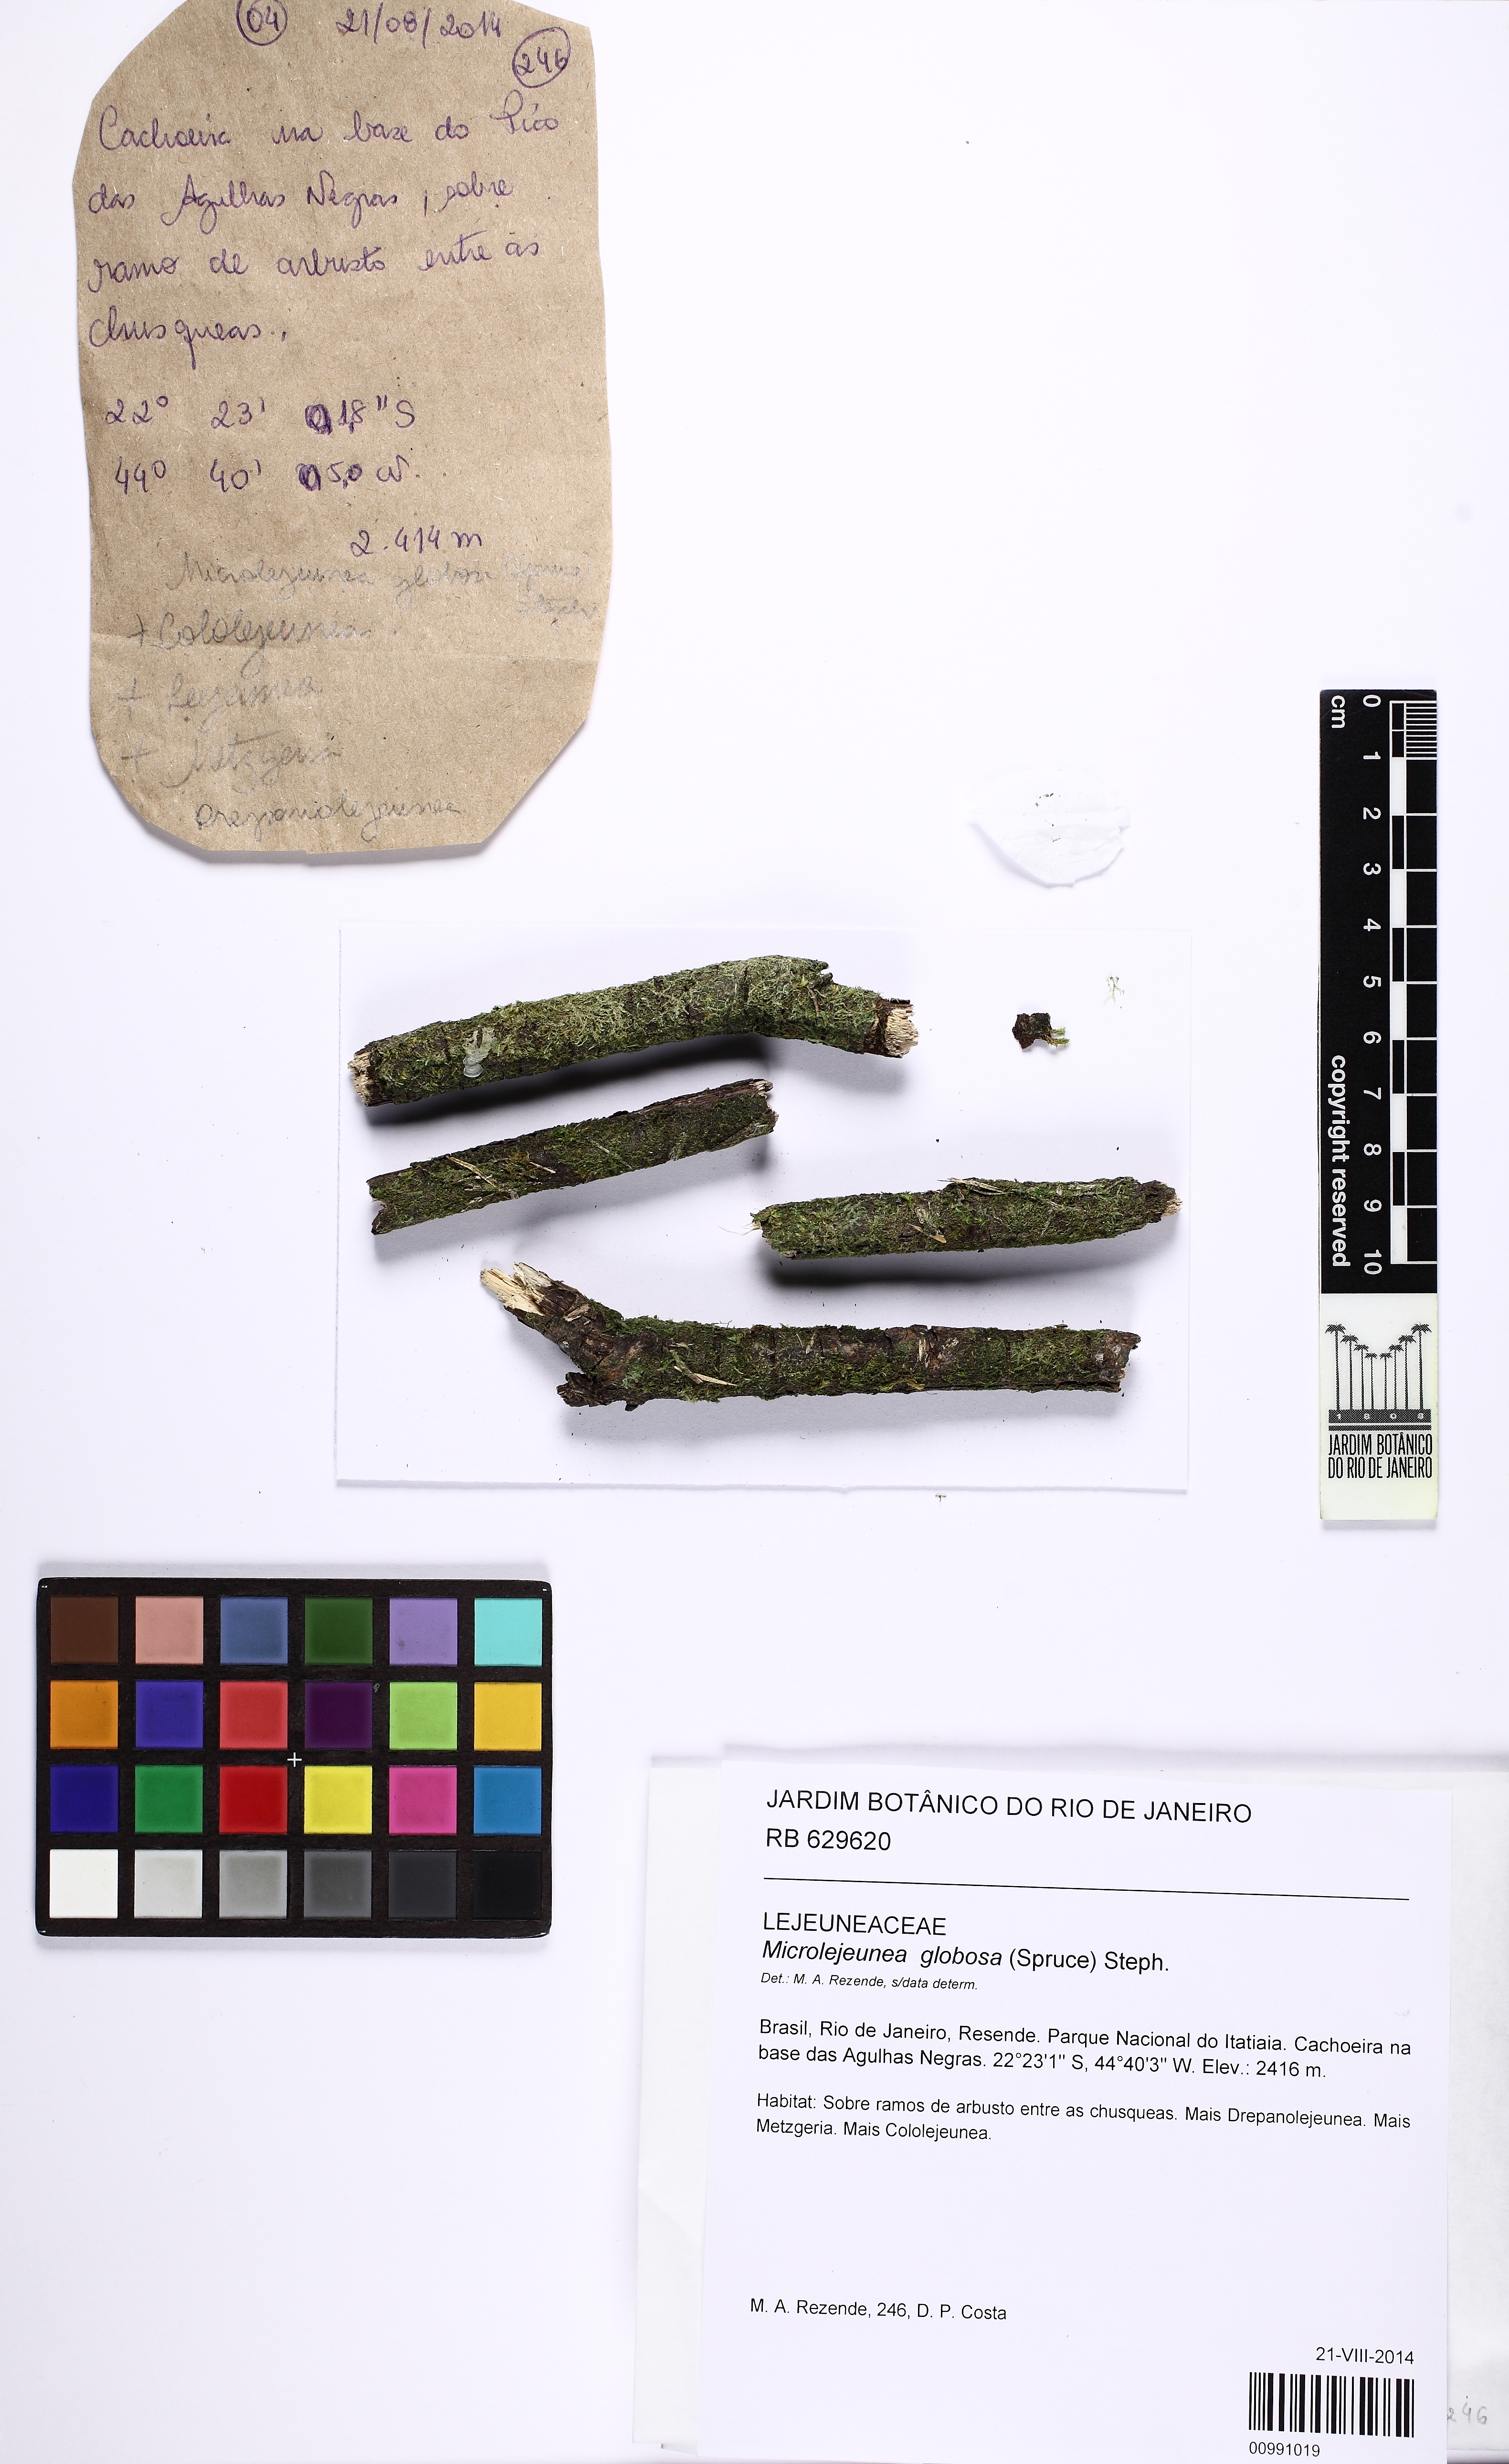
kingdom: Plantae
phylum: Marchantiophyta
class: Jungermanniopsida
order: Porellales
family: Lejeuneaceae
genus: Microlejeunea
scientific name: Microlejeunea globosa
